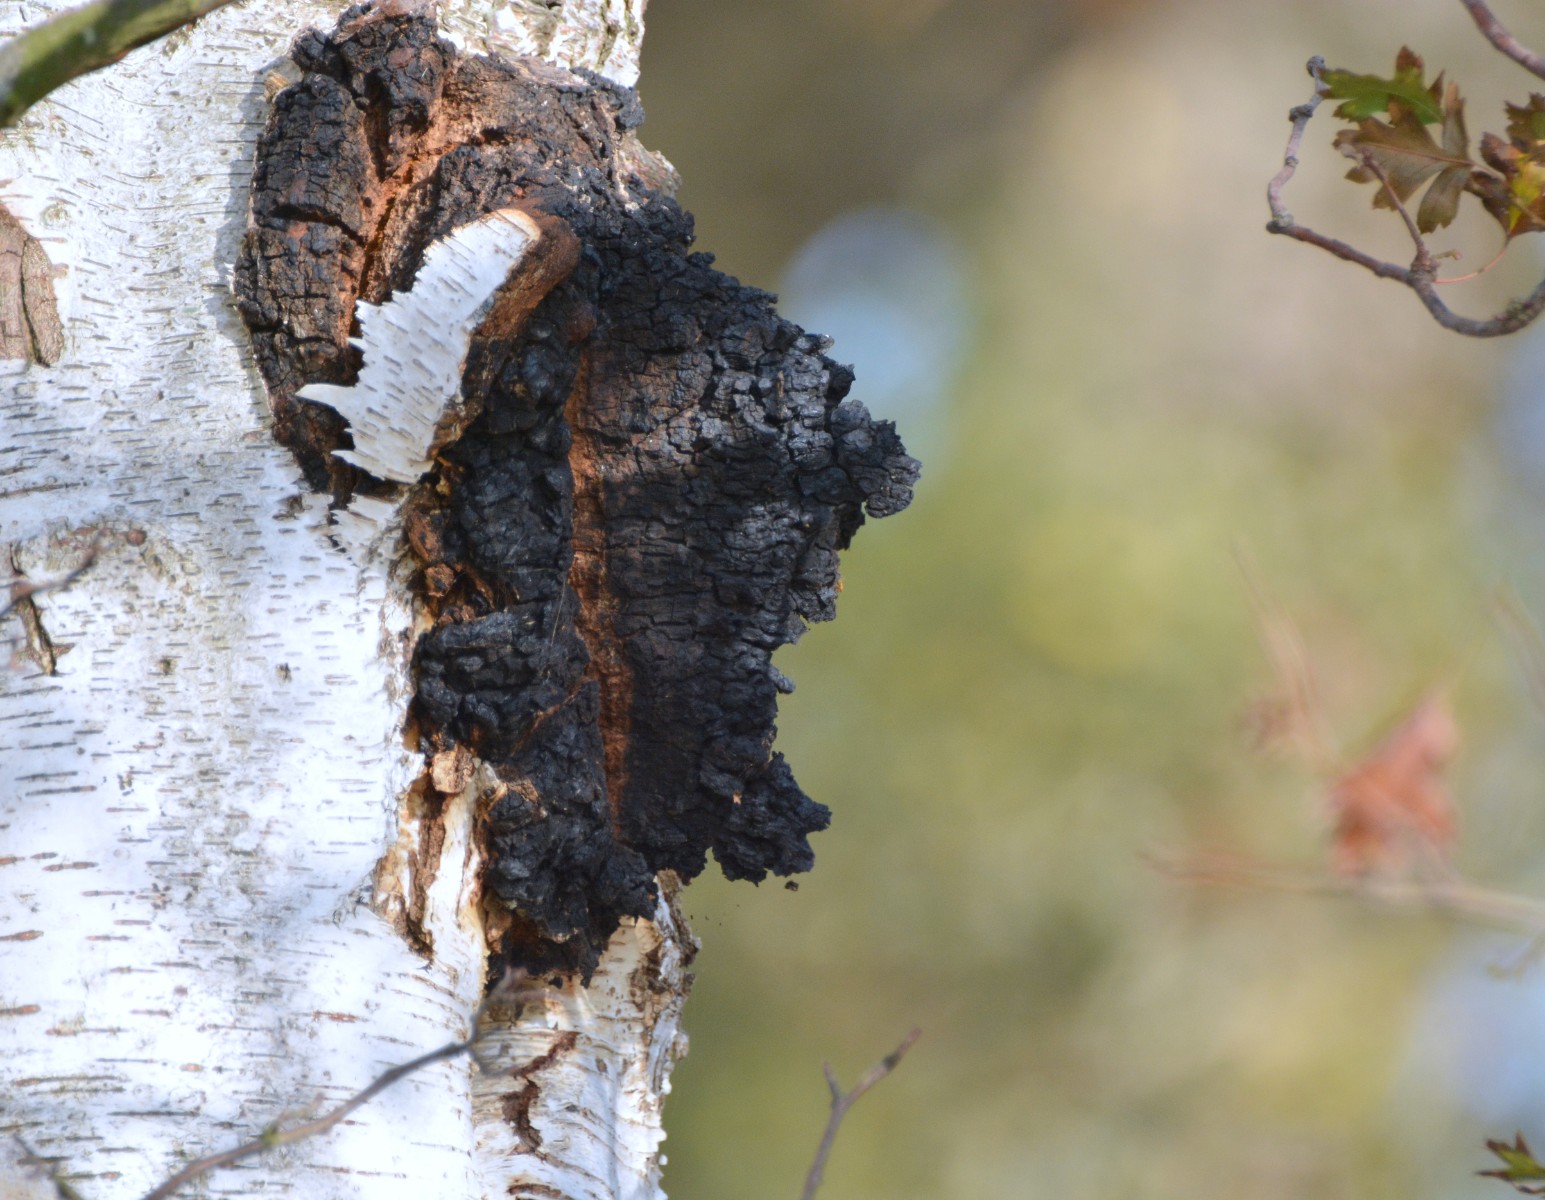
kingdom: Fungi
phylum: Basidiomycota
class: Agaricomycetes
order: Hymenochaetales
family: Hymenochaetaceae
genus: Inonotus
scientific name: Inonotus obliquus
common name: birke-spejlporesvamp
